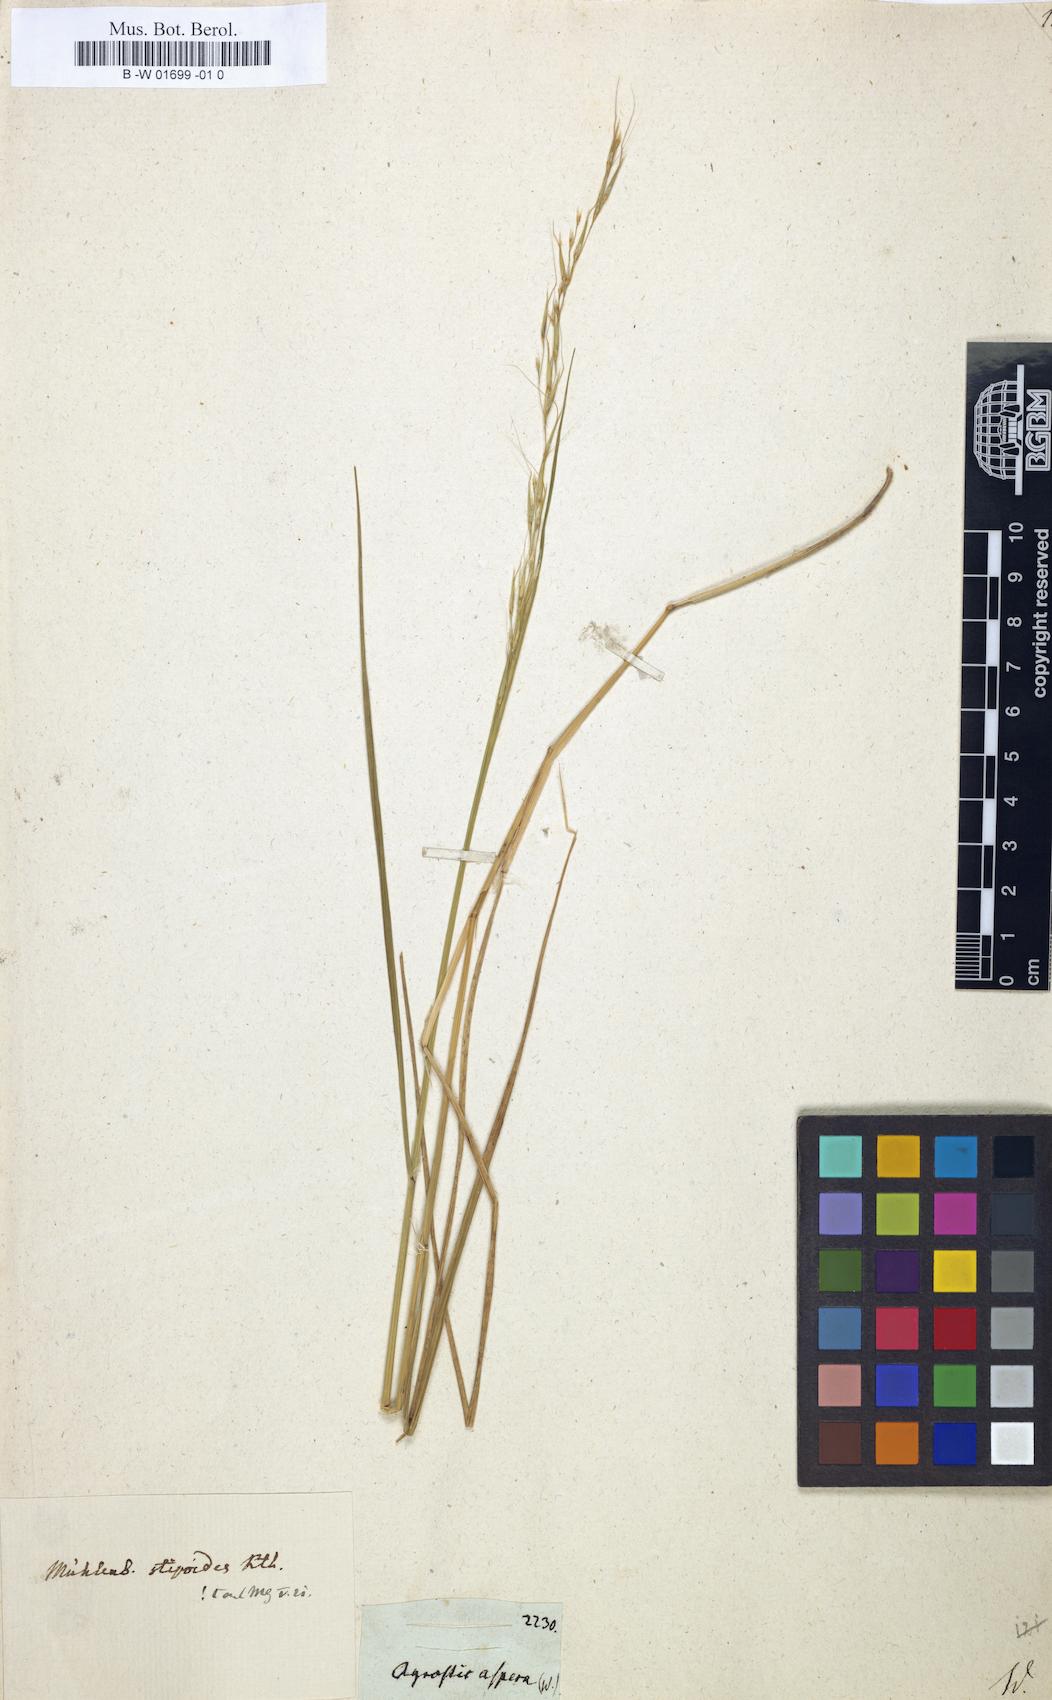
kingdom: Plantae
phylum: Tracheophyta
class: Liliopsida
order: Poales
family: Poaceae
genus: Agrostis
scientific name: Agrostis stolonifera
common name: Creeping bentgrass
